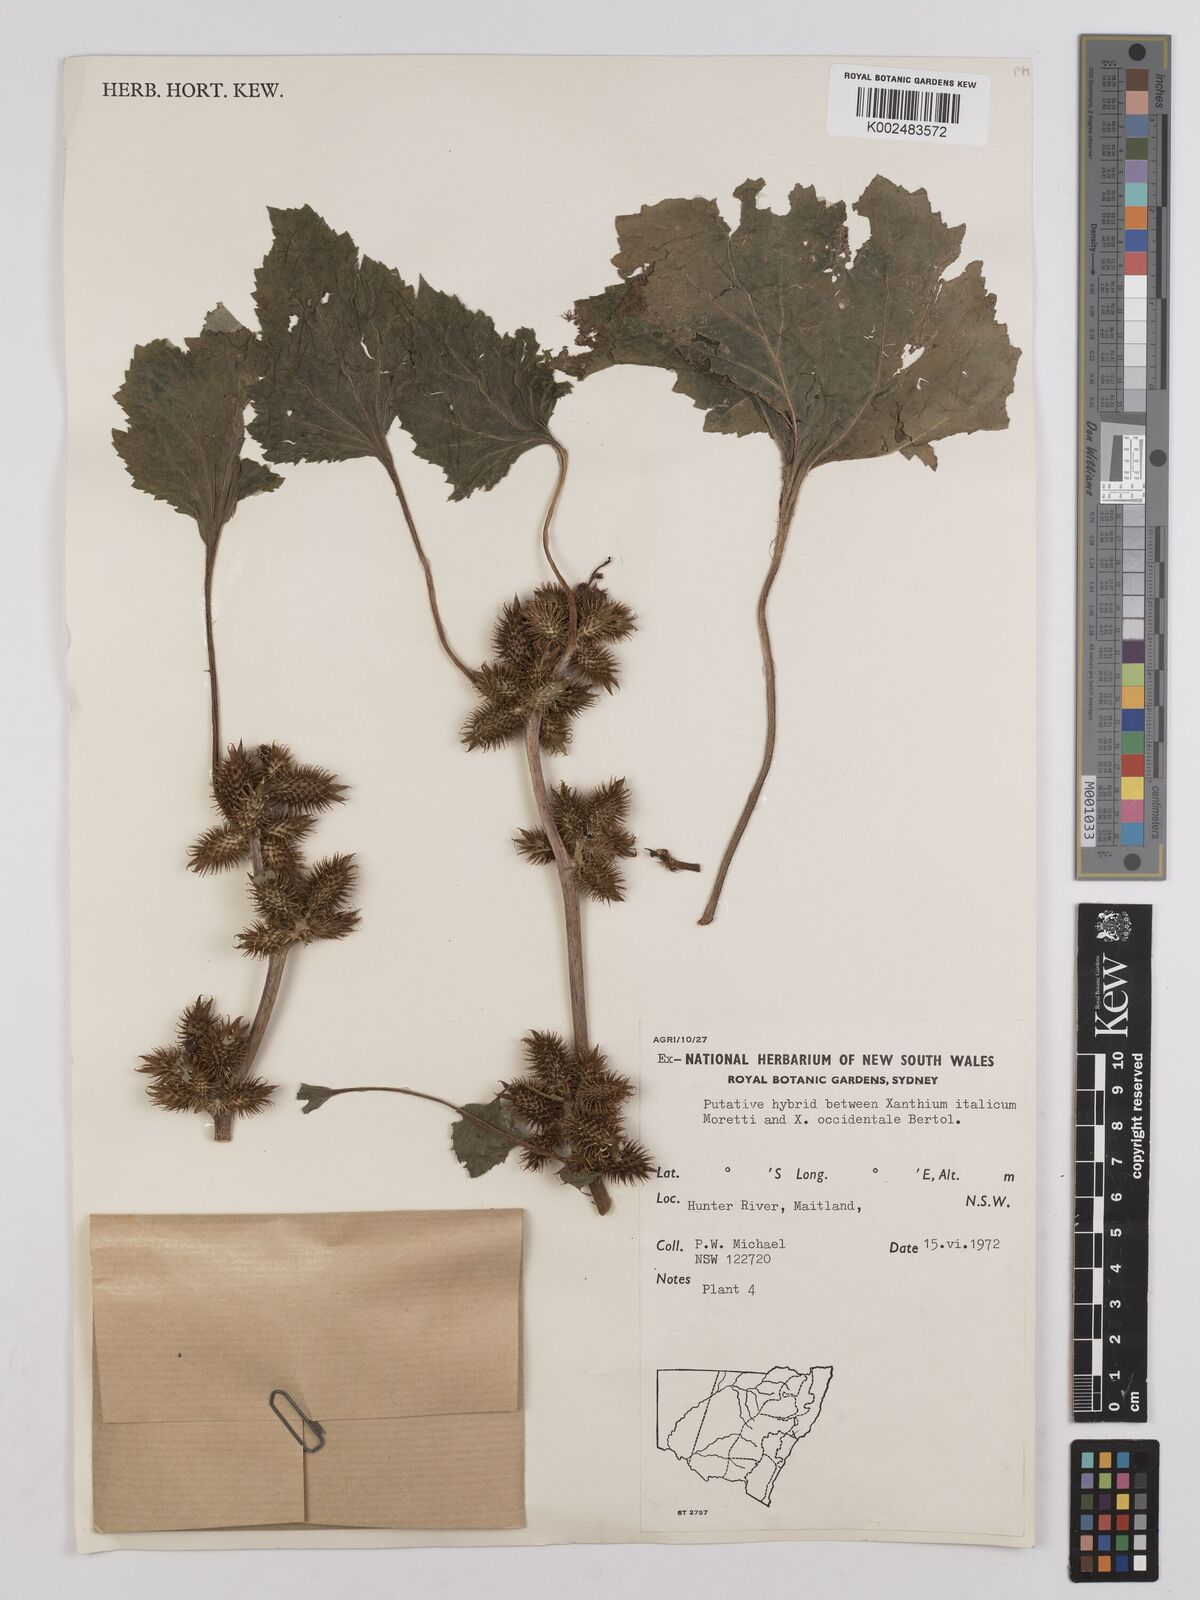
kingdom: Plantae
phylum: Tracheophyta
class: Magnoliopsida
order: Asterales
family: Asteraceae
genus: Xanthium
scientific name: Xanthium
